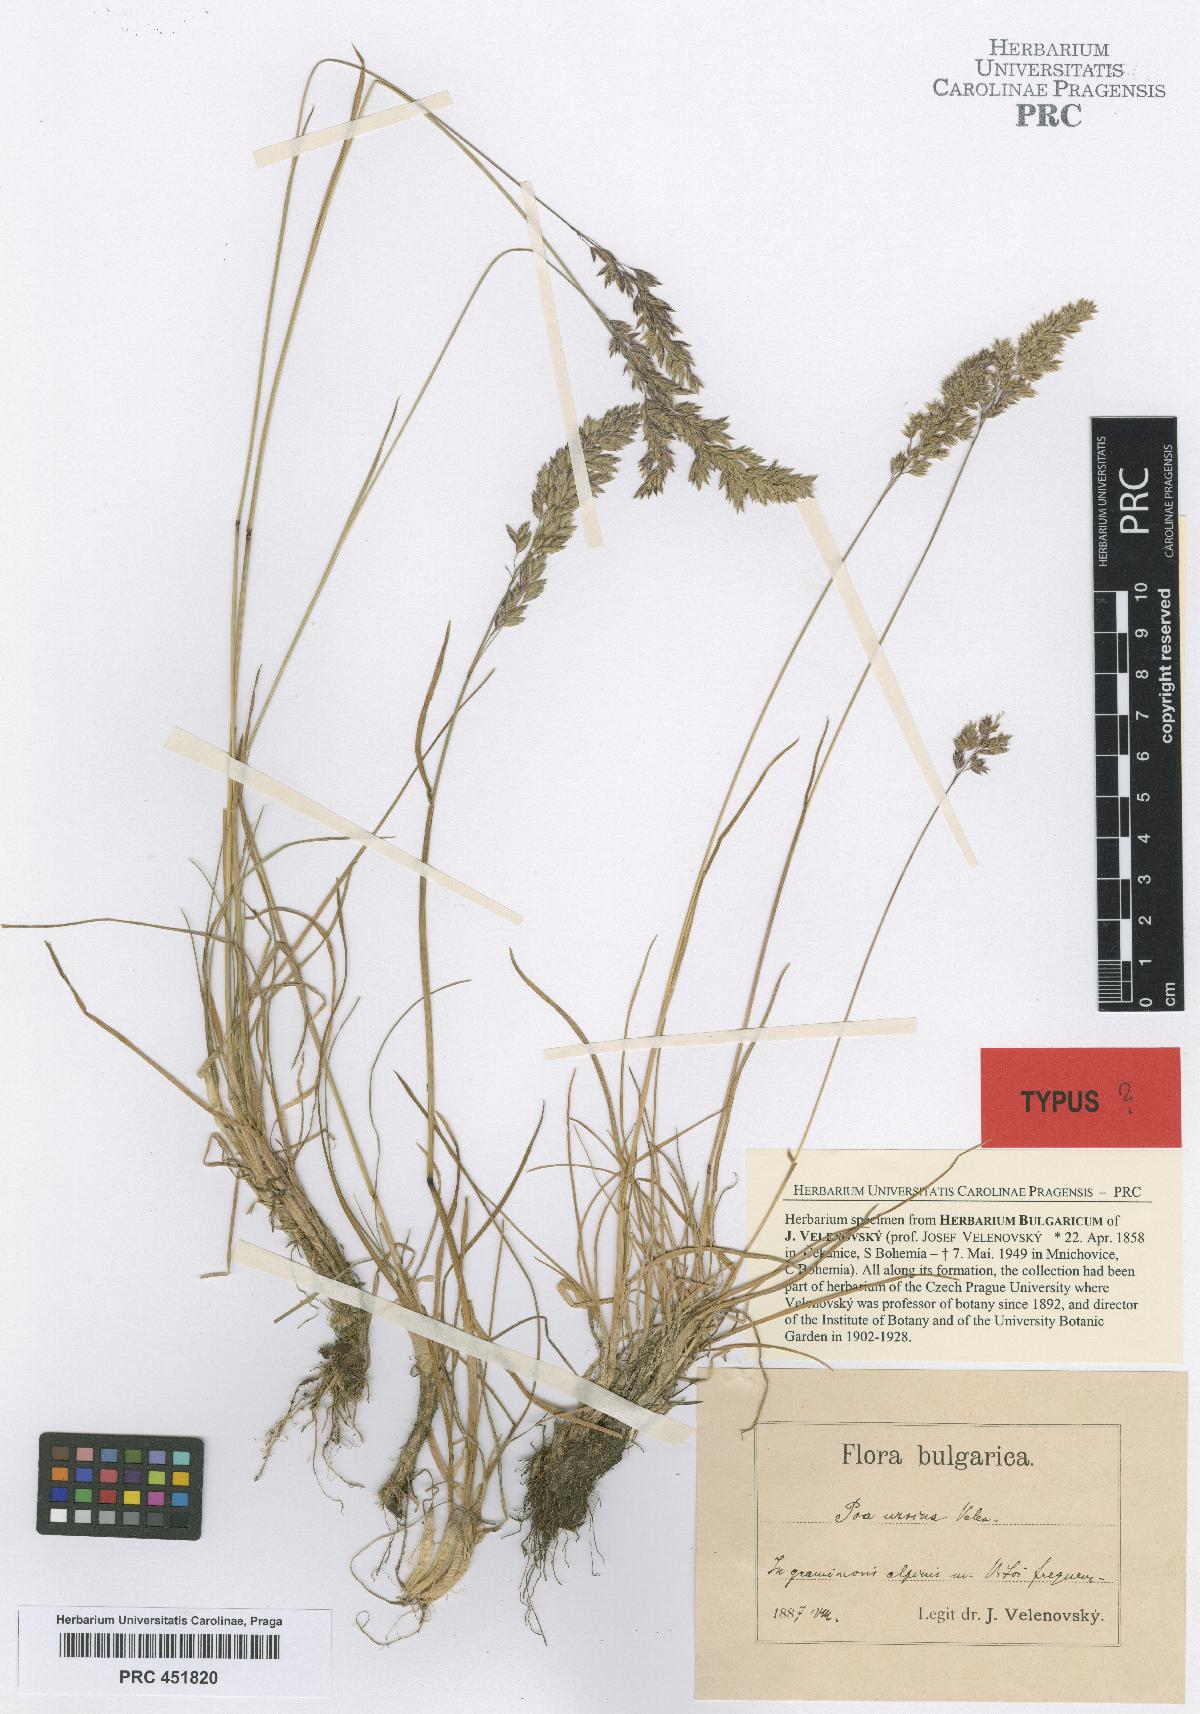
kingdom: Plantae
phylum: Tracheophyta
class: Liliopsida
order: Poales
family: Poaceae
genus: Poa
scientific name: Poa ursina
